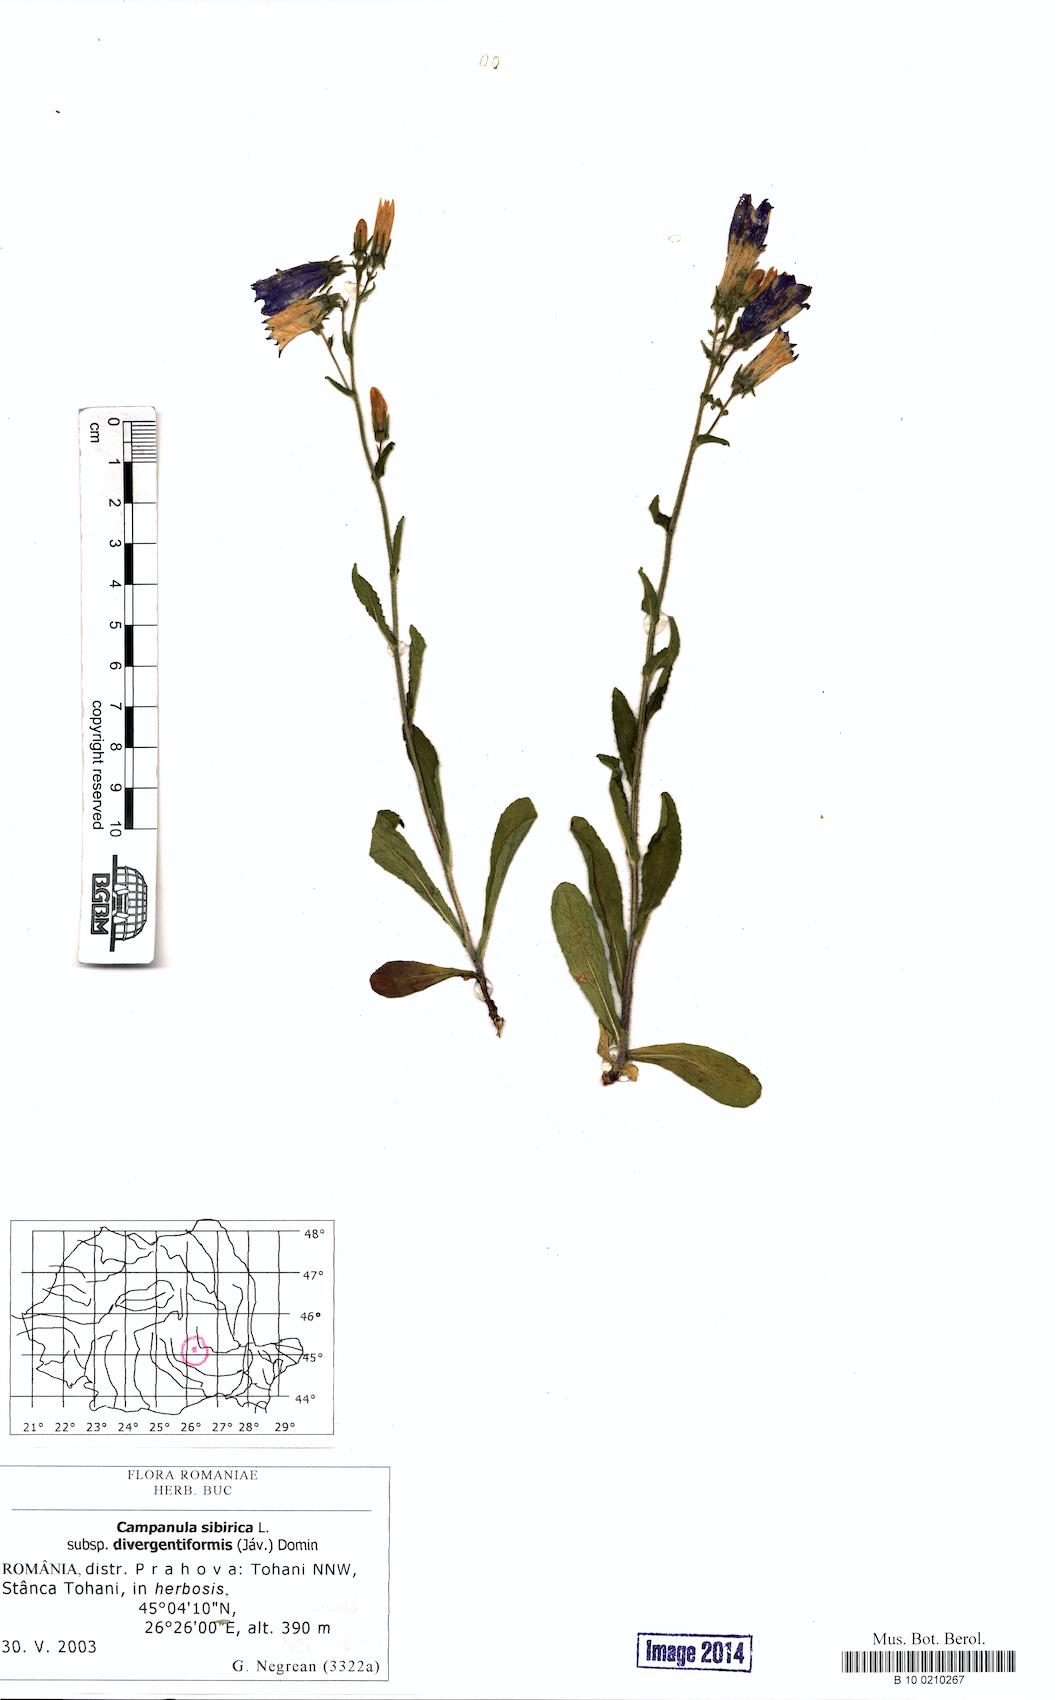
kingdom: Plantae
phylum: Tracheophyta
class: Magnoliopsida
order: Asterales
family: Campanulaceae
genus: Campanula
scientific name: Campanula sibirica
